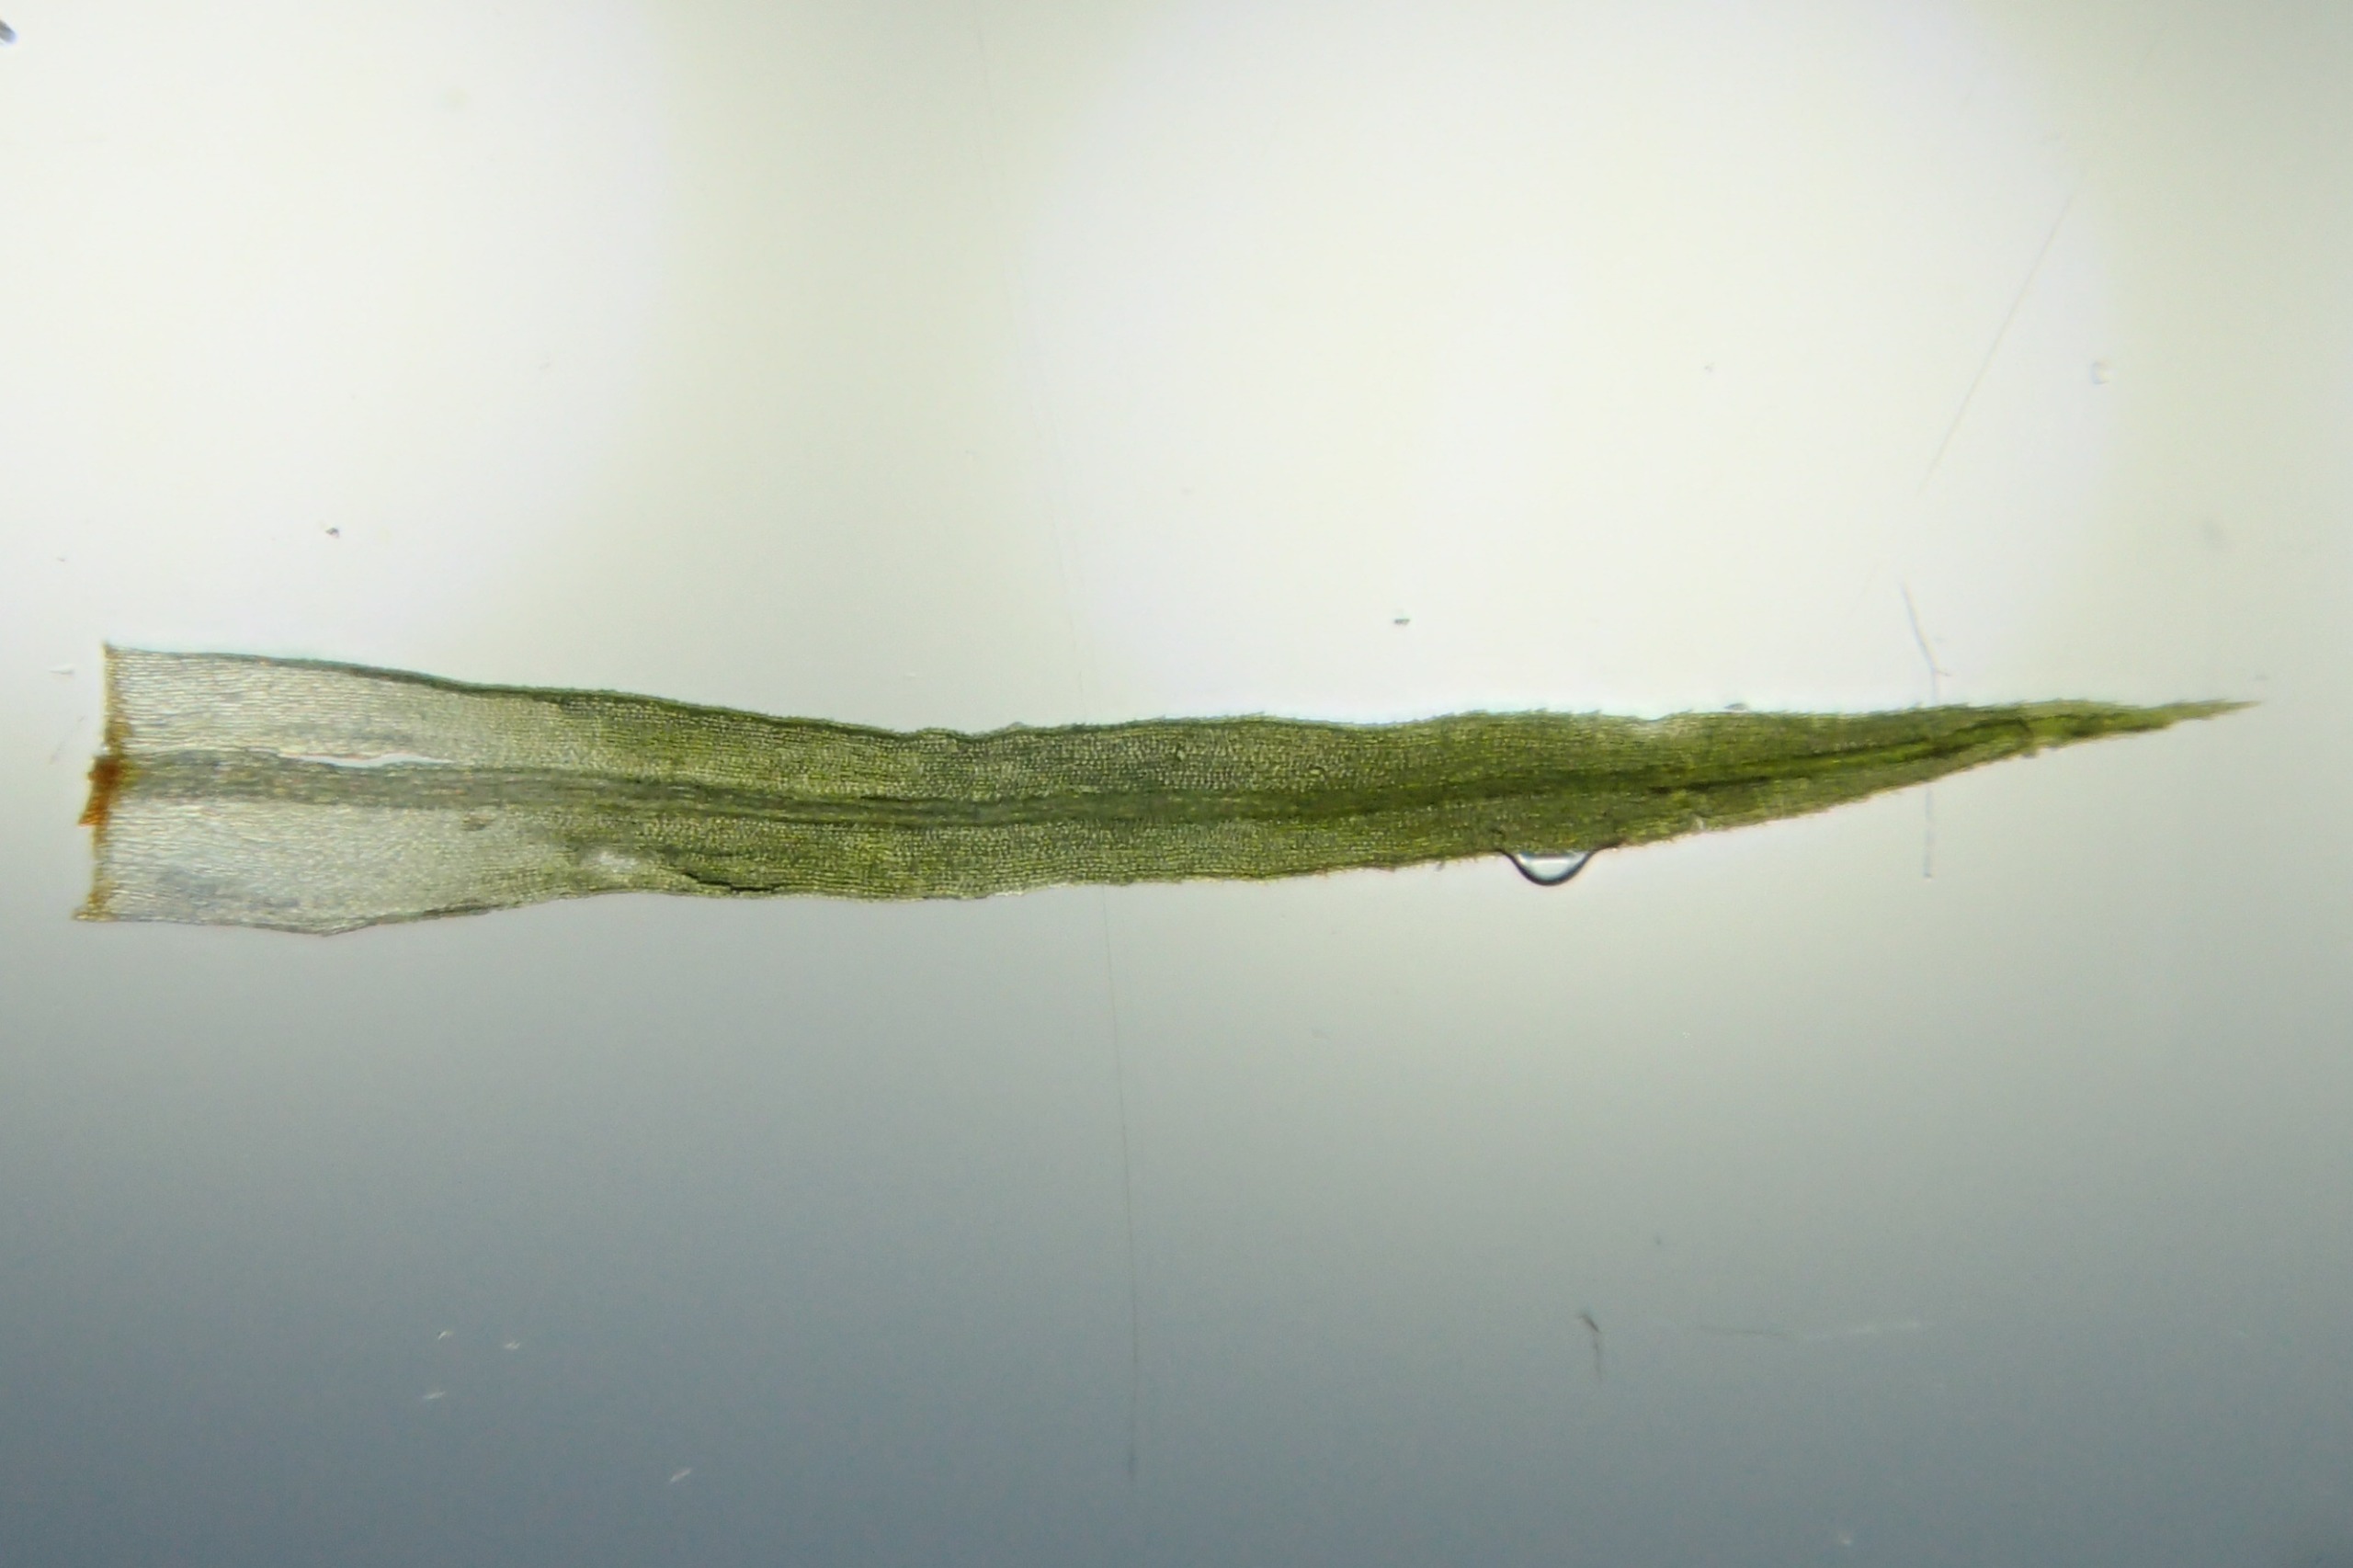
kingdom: Plantae
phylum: Bryophyta
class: Bryopsida
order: Bartramiales
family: Bartramiaceae
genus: Bartramia
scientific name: Bartramia pomiformis
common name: Gulgrøn kuglekapsel
